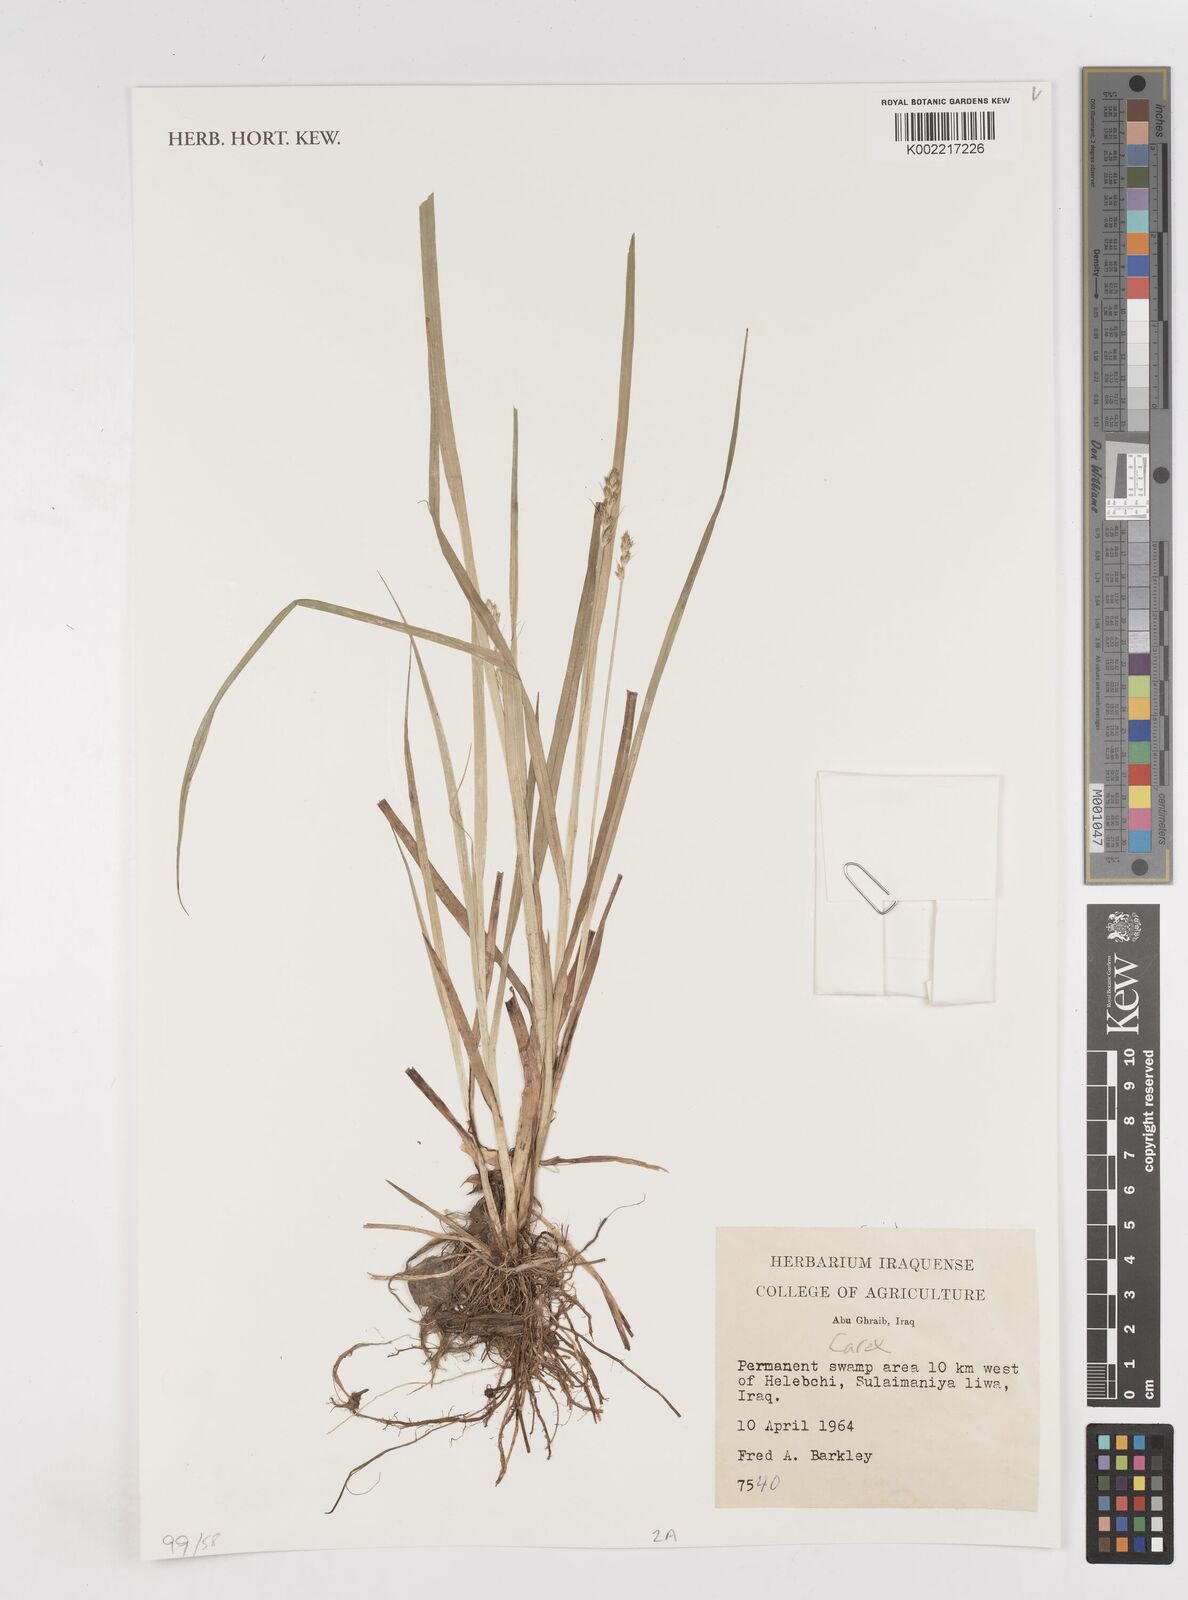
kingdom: Plantae
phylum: Tracheophyta
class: Liliopsida
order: Poales
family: Cyperaceae
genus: Carex
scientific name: Carex
